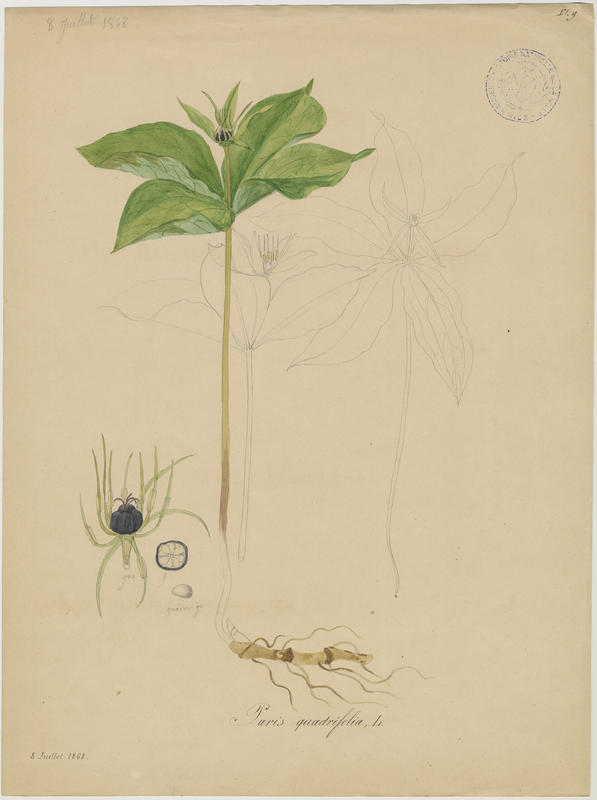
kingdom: Plantae
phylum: Tracheophyta
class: Liliopsida
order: Liliales
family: Melanthiaceae
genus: Paris
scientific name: Paris quadrifolia
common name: Herb-paris
